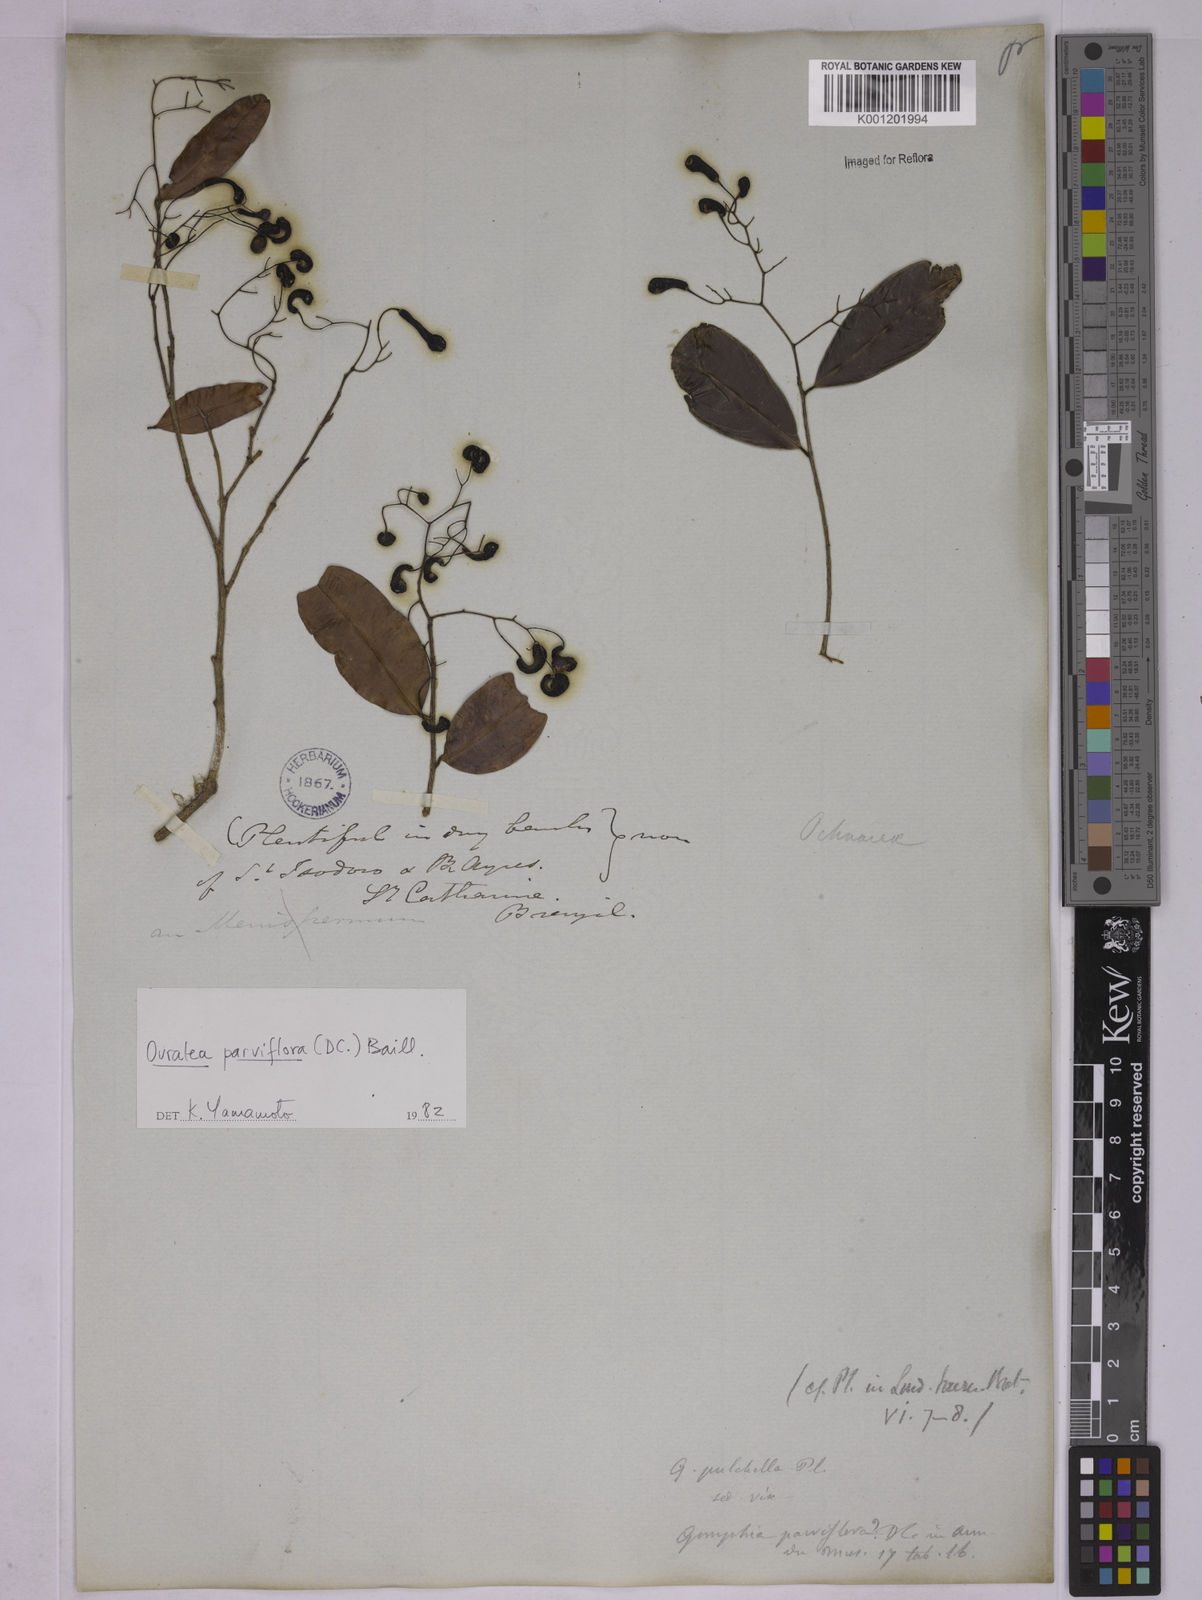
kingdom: Plantae
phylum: Tracheophyta
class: Magnoliopsida
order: Malpighiales
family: Ochnaceae
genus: Ouratea
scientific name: Ouratea parviflora
